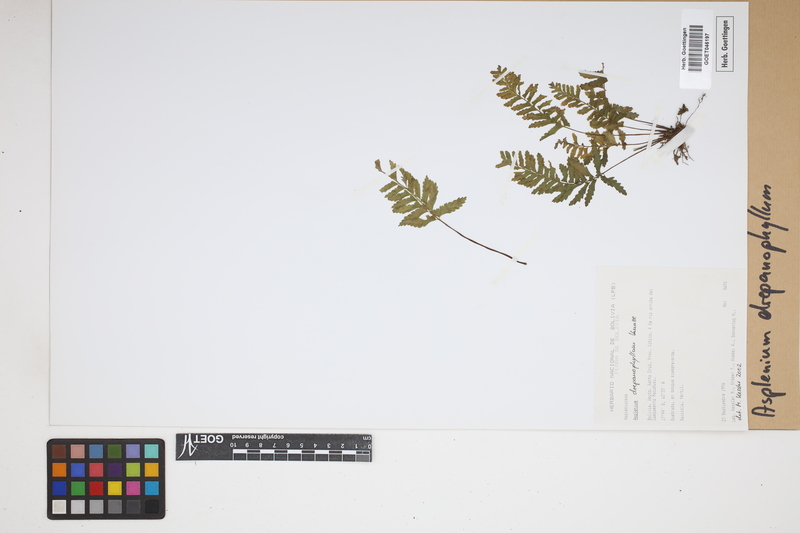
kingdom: Plantae
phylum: Tracheophyta
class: Polypodiopsida
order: Polypodiales
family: Aspleniaceae
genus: Asplenium
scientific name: Asplenium drepanophyllum
